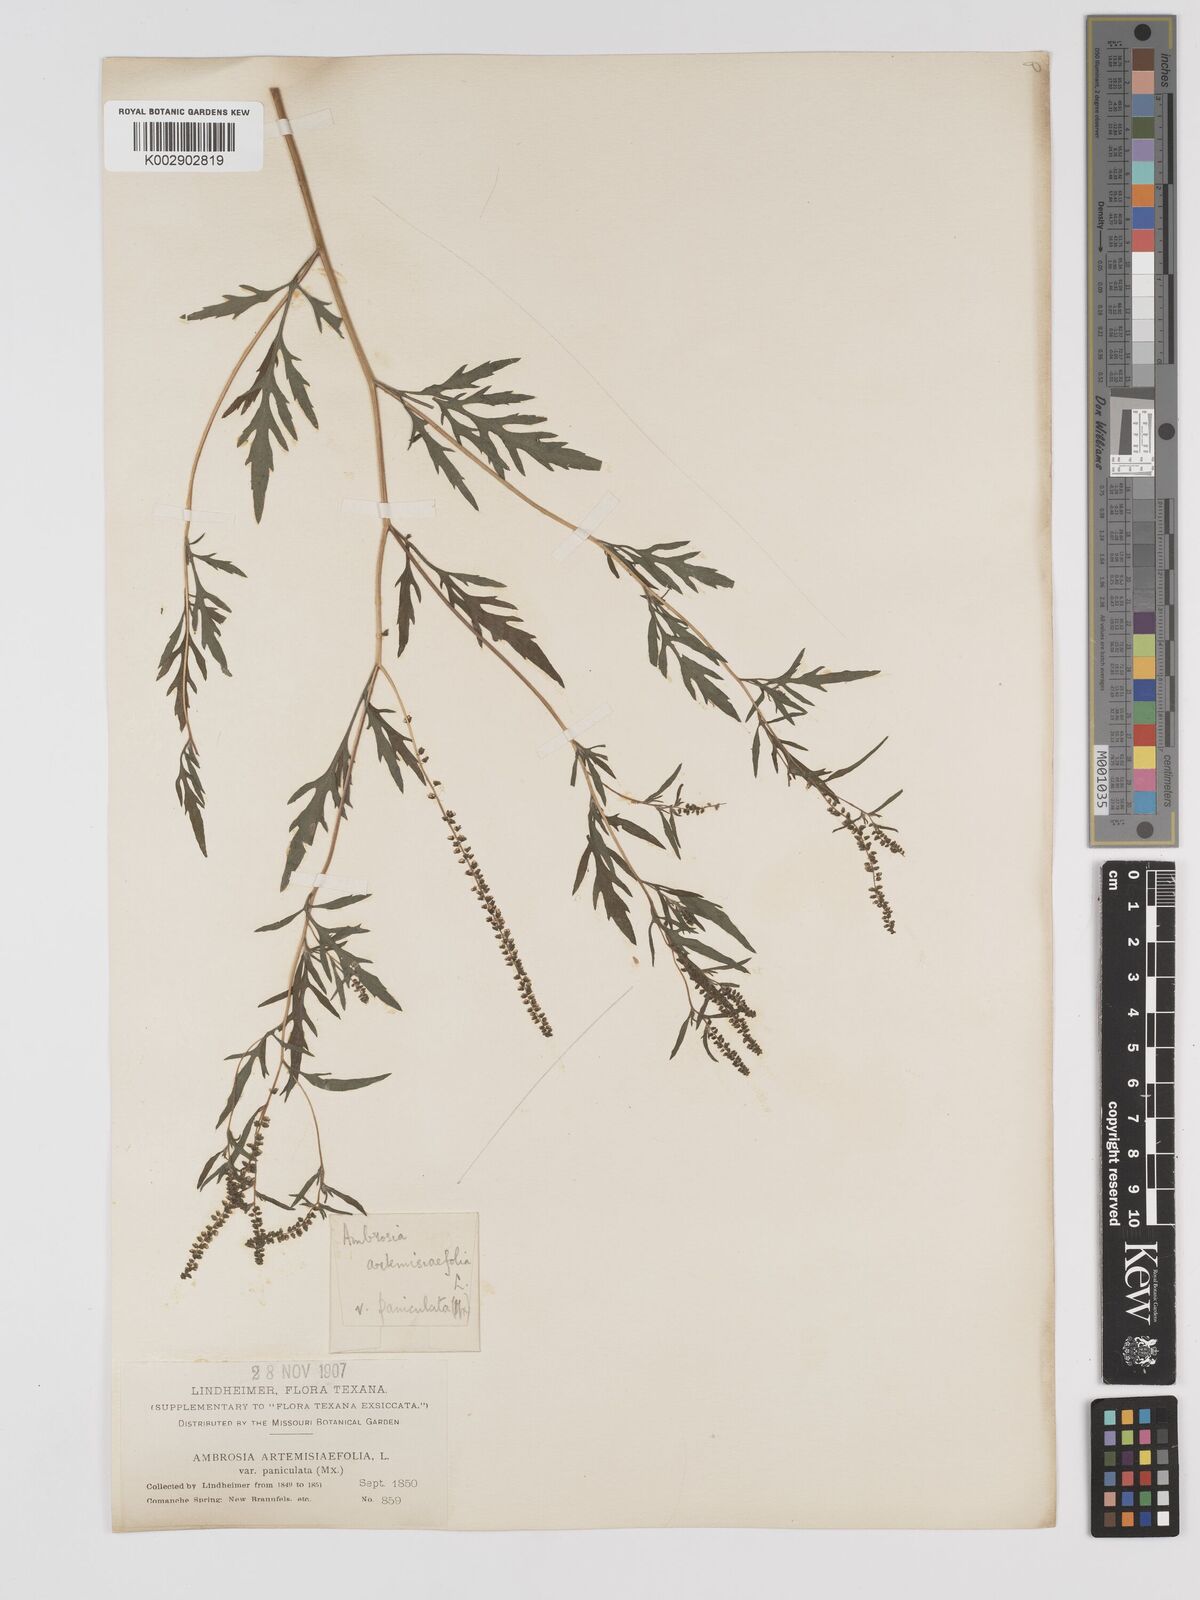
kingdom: Plantae
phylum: Tracheophyta
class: Magnoliopsida
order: Asterales
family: Asteraceae
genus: Ambrosia
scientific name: Ambrosia artemisiifolia
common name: Annual ragweed
